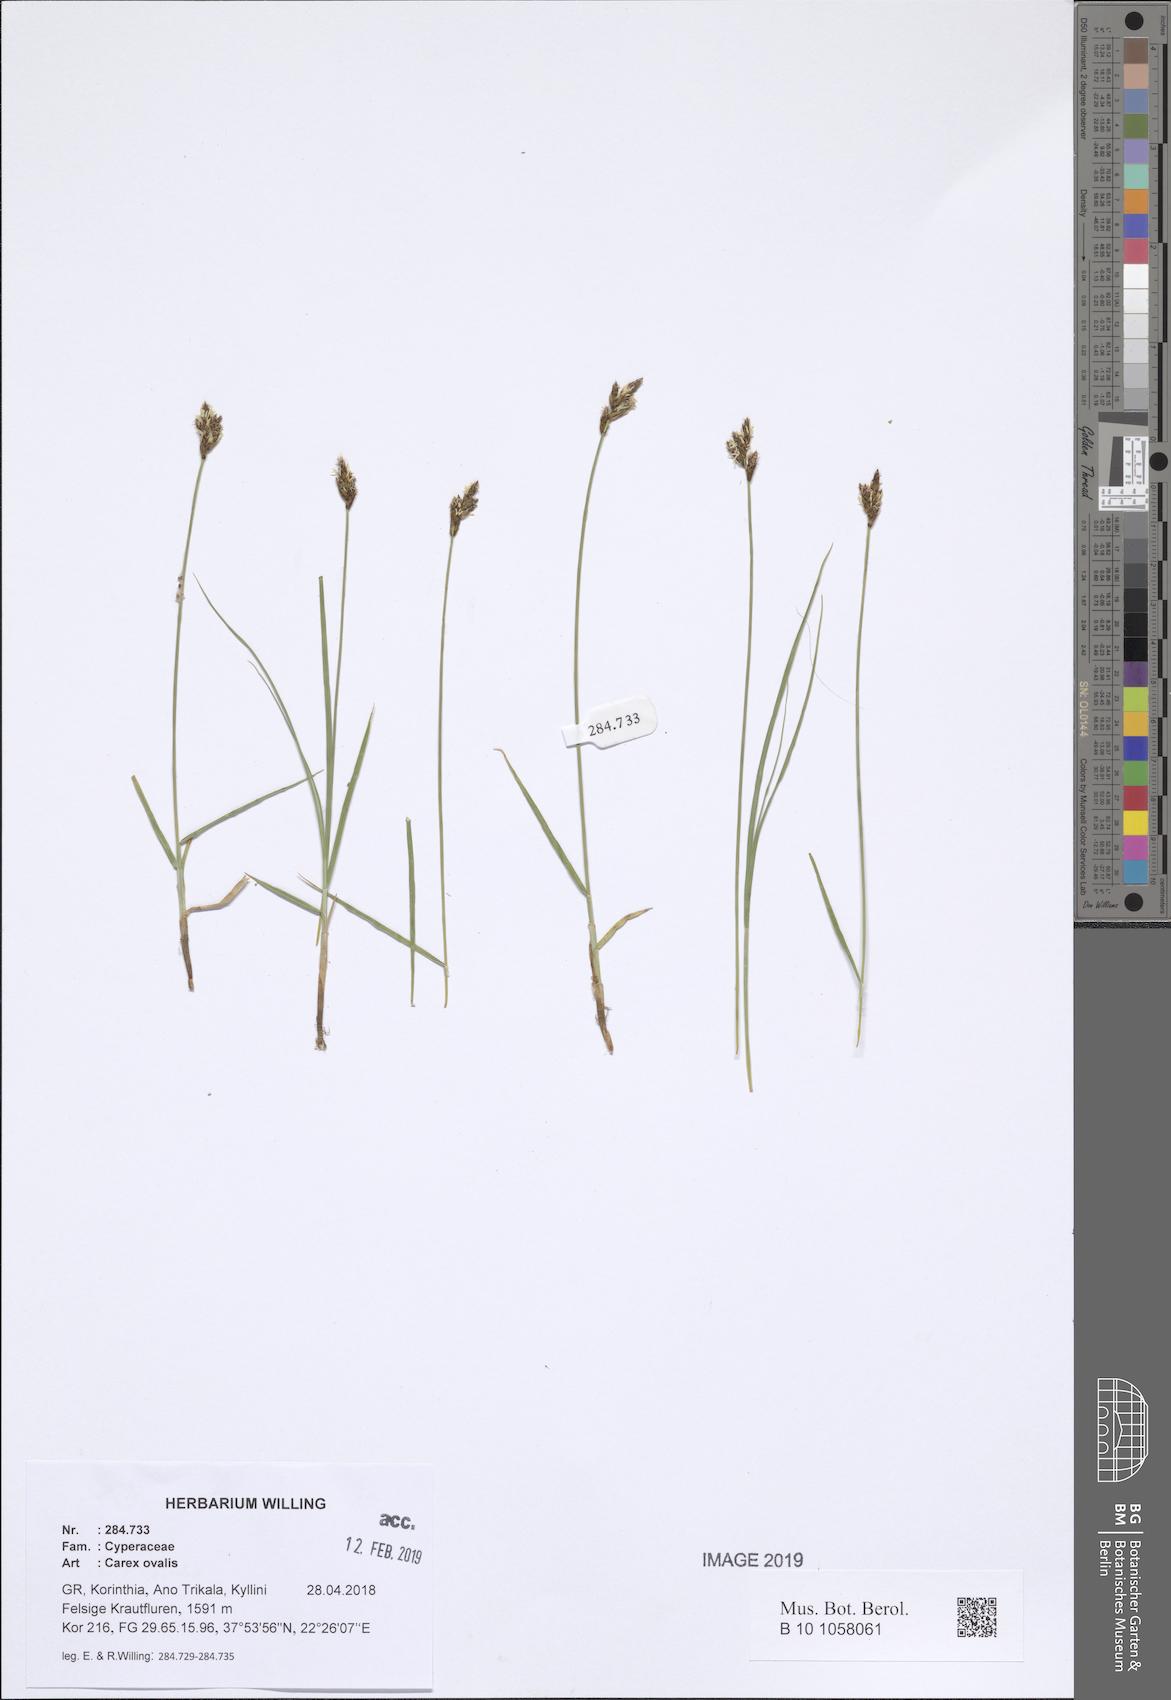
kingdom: Plantae
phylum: Tracheophyta
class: Liliopsida
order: Poales
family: Cyperaceae
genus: Carex
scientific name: Carex leporina
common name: Oval sedge
